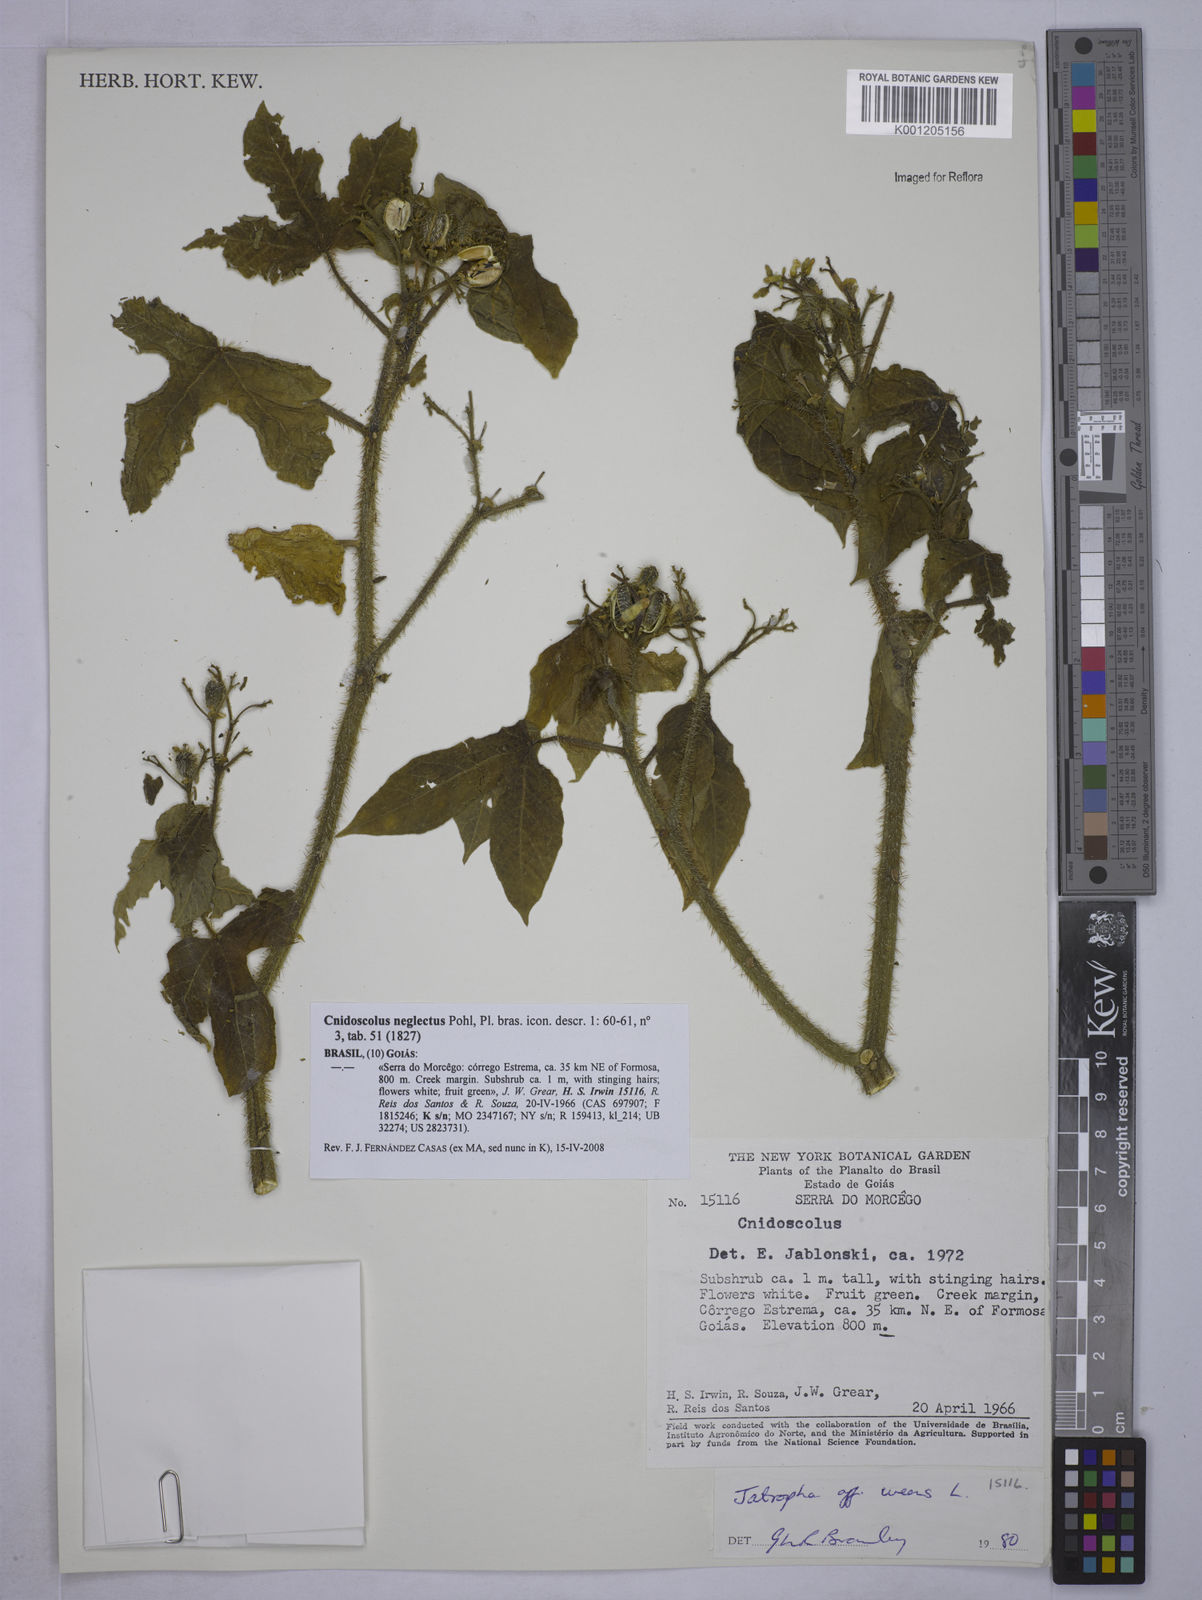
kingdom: Plantae
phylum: Tracheophyta
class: Magnoliopsida
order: Malpighiales
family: Euphorbiaceae
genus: Cnidoscolus
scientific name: Cnidoscolus neglectus
